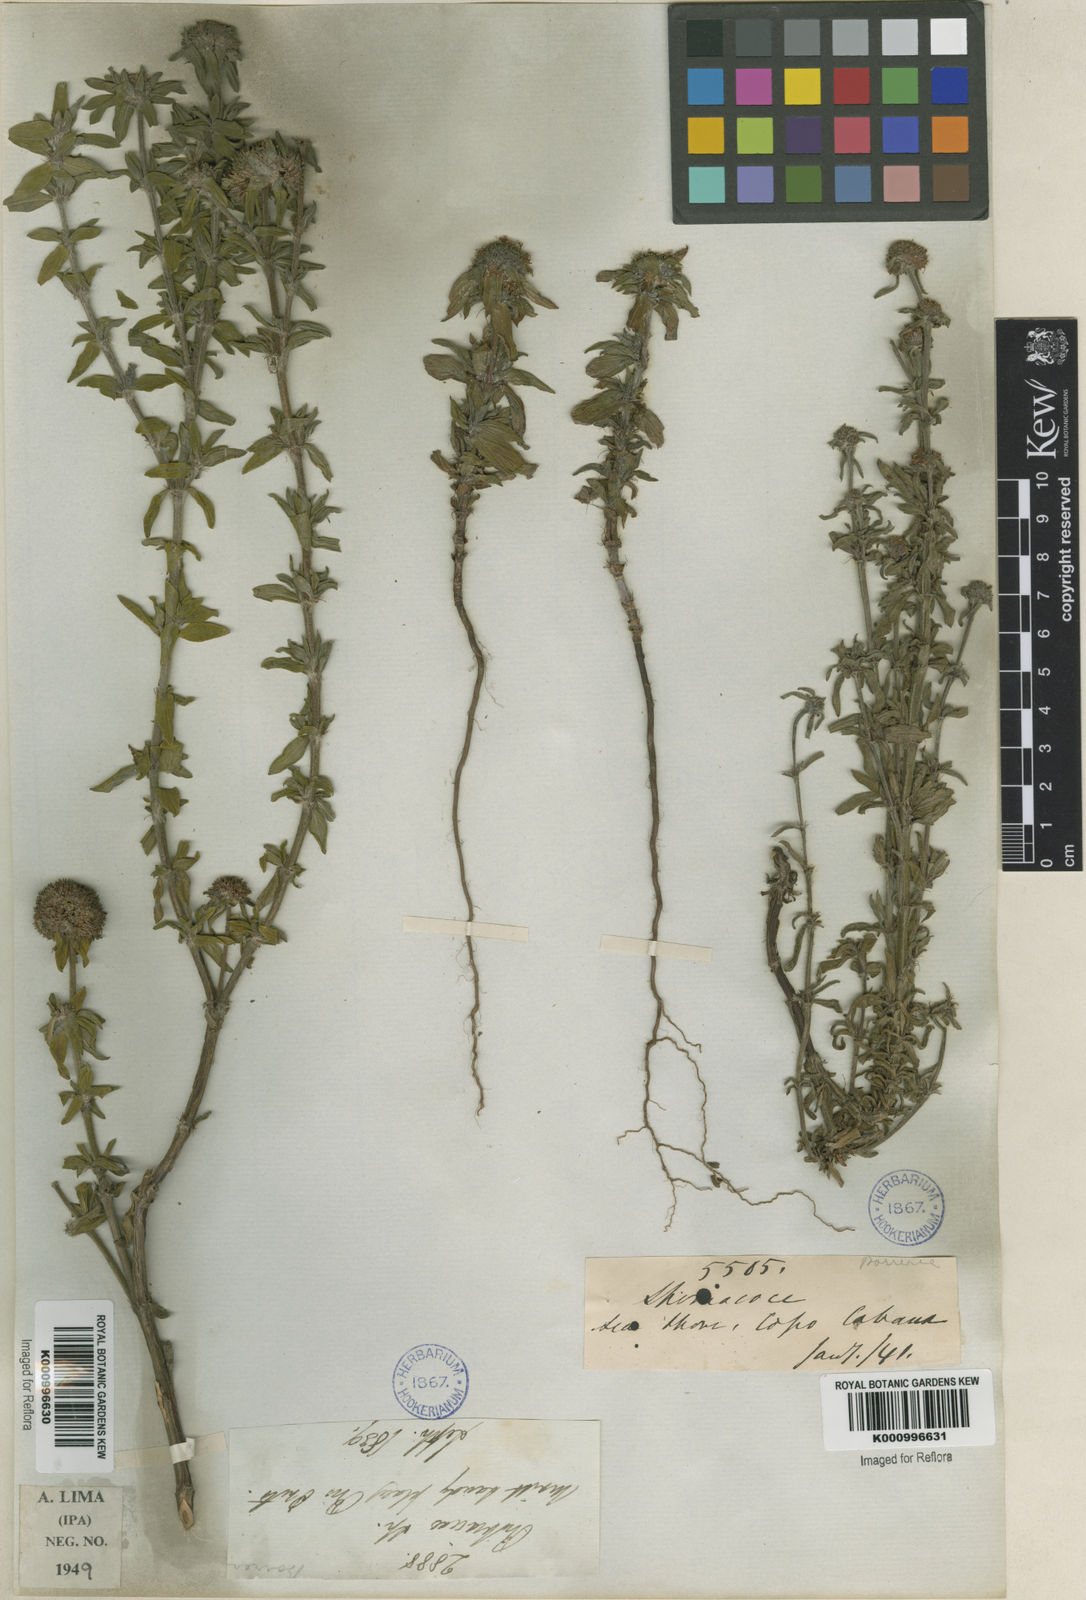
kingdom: Plantae
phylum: Tracheophyta
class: Magnoliopsida
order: Gentianales
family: Rubiaceae
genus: Spermacoce
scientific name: Spermacoce
